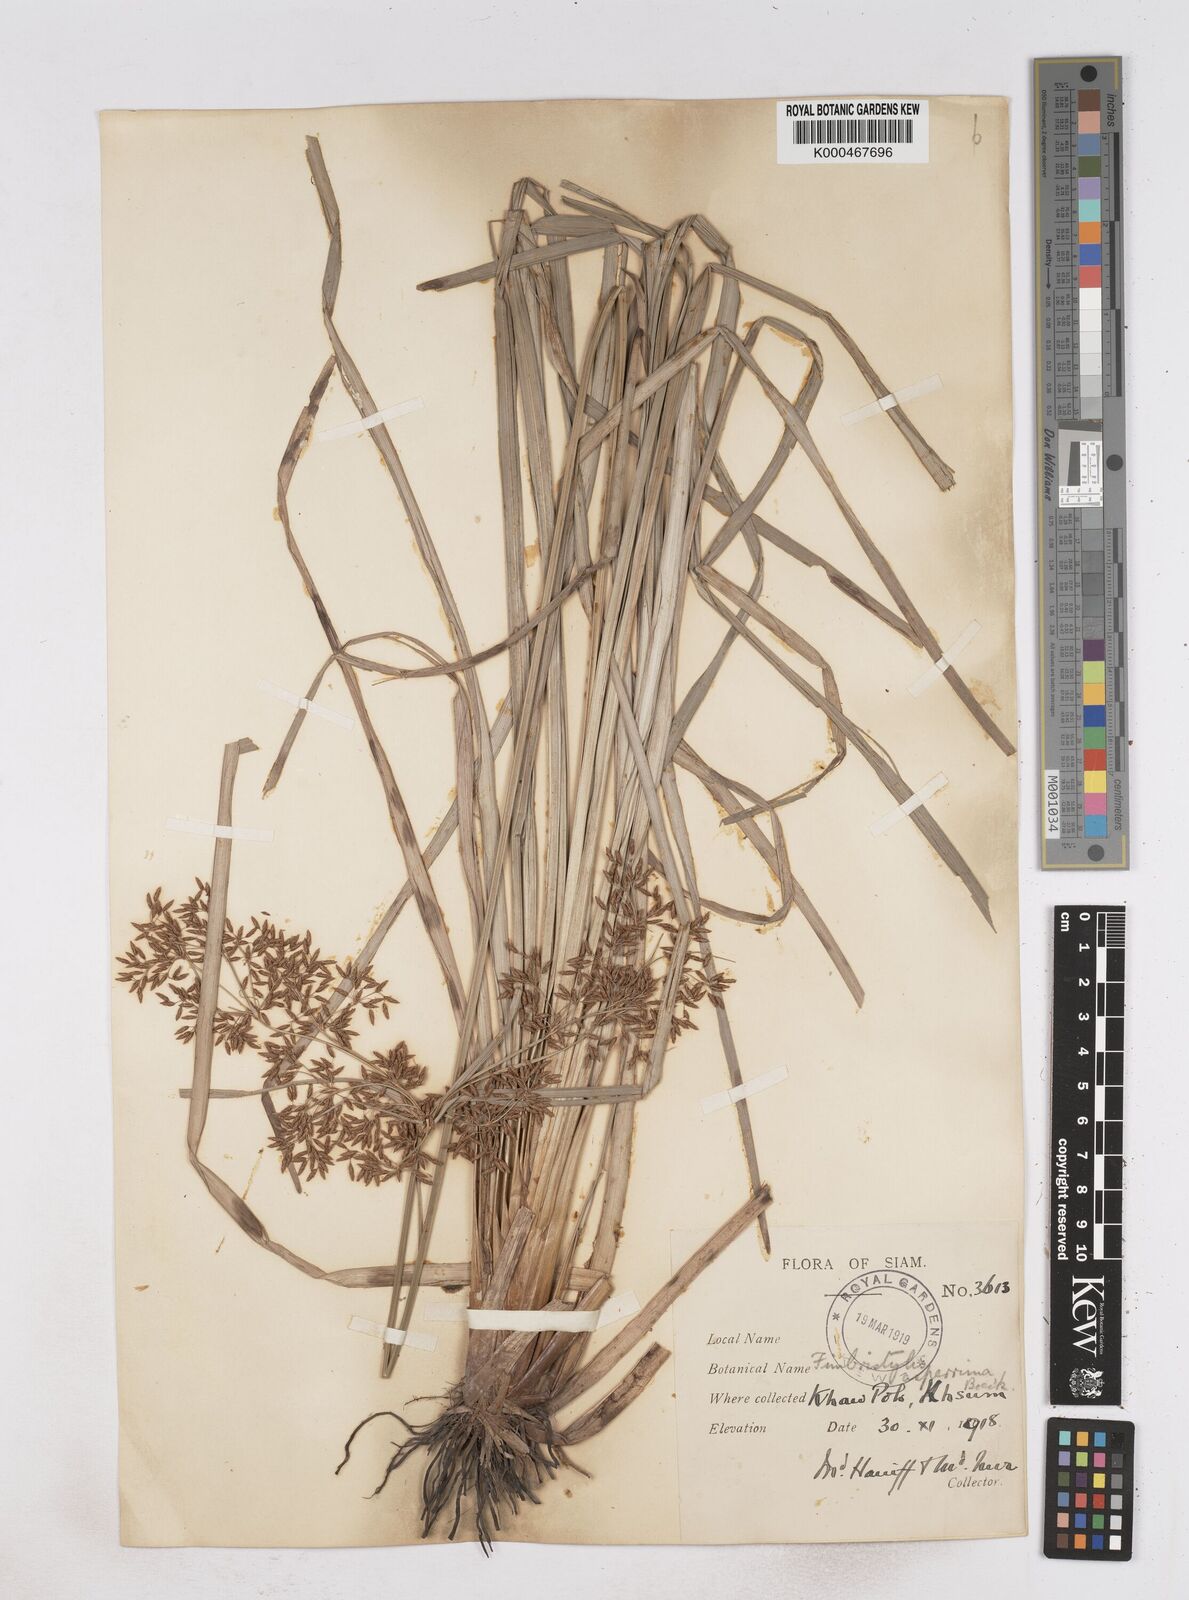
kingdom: Plantae
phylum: Tracheophyta
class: Liliopsida
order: Poales
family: Cyperaceae
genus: Fimbristylis
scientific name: Fimbristylis dura
